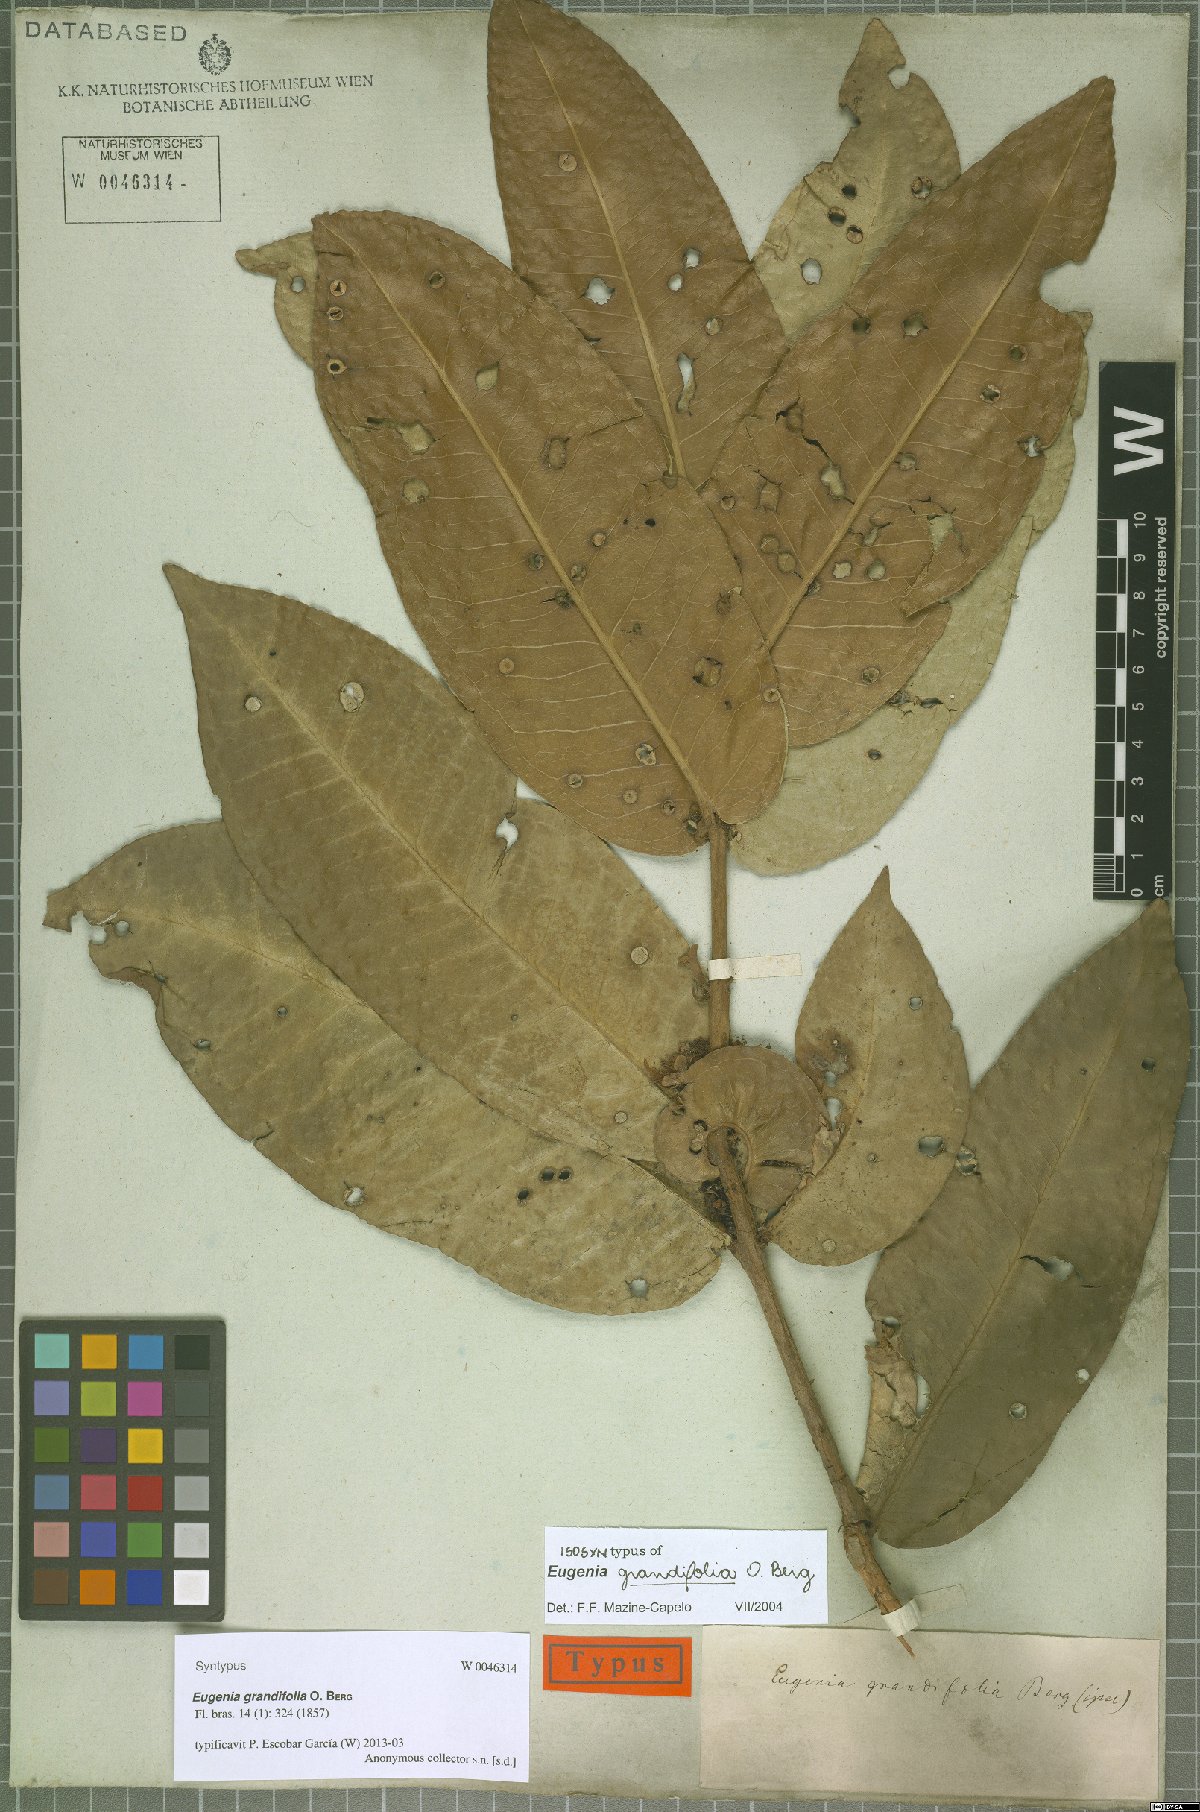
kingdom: Plantae
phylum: Tracheophyta
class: Magnoliopsida
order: Myrtales
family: Myrtaceae
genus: Eugenia
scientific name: Eugenia grandifolia
